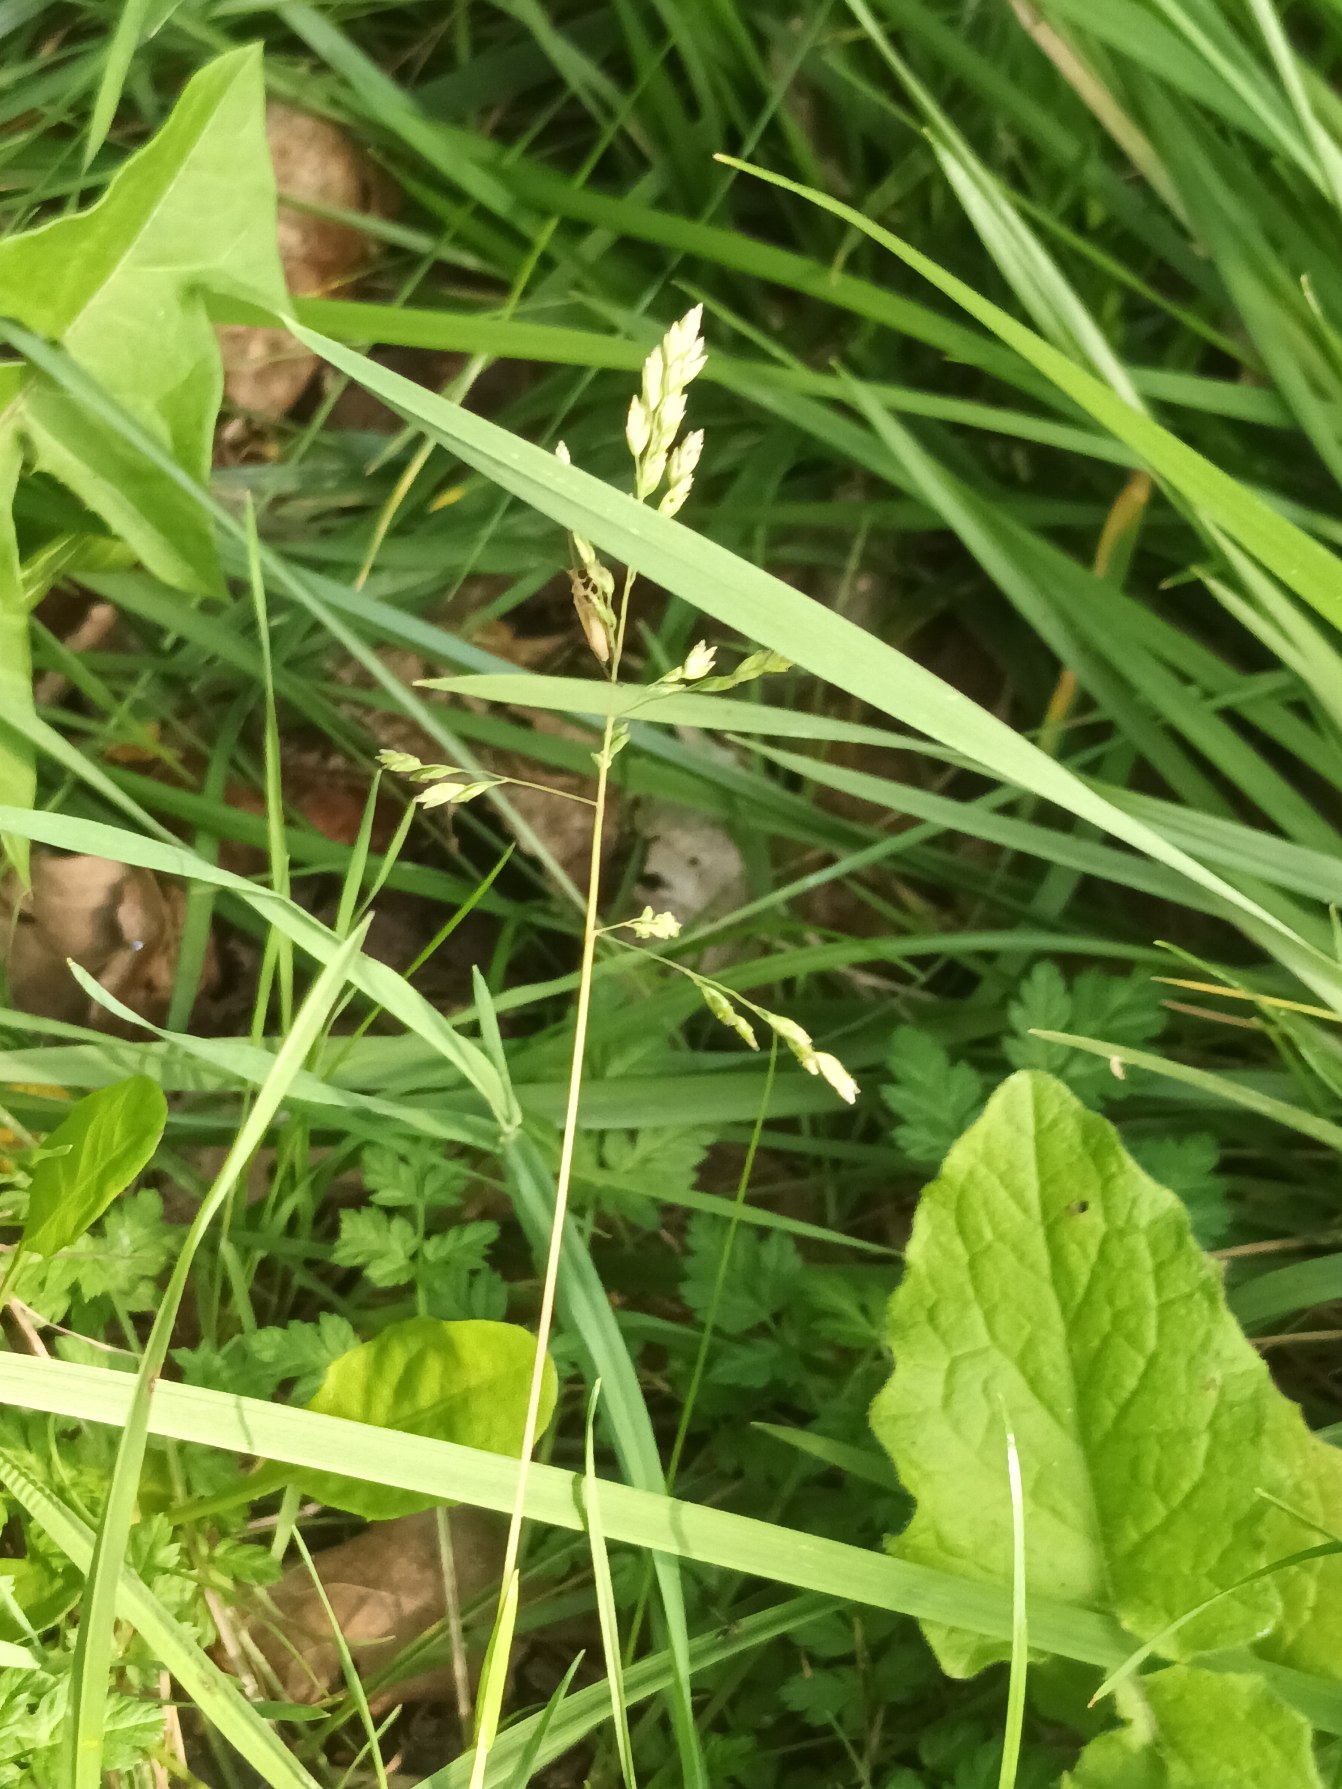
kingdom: Plantae
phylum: Tracheophyta
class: Liliopsida
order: Poales
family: Poaceae
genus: Poa
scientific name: Poa annua
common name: Enårig rapgræs
